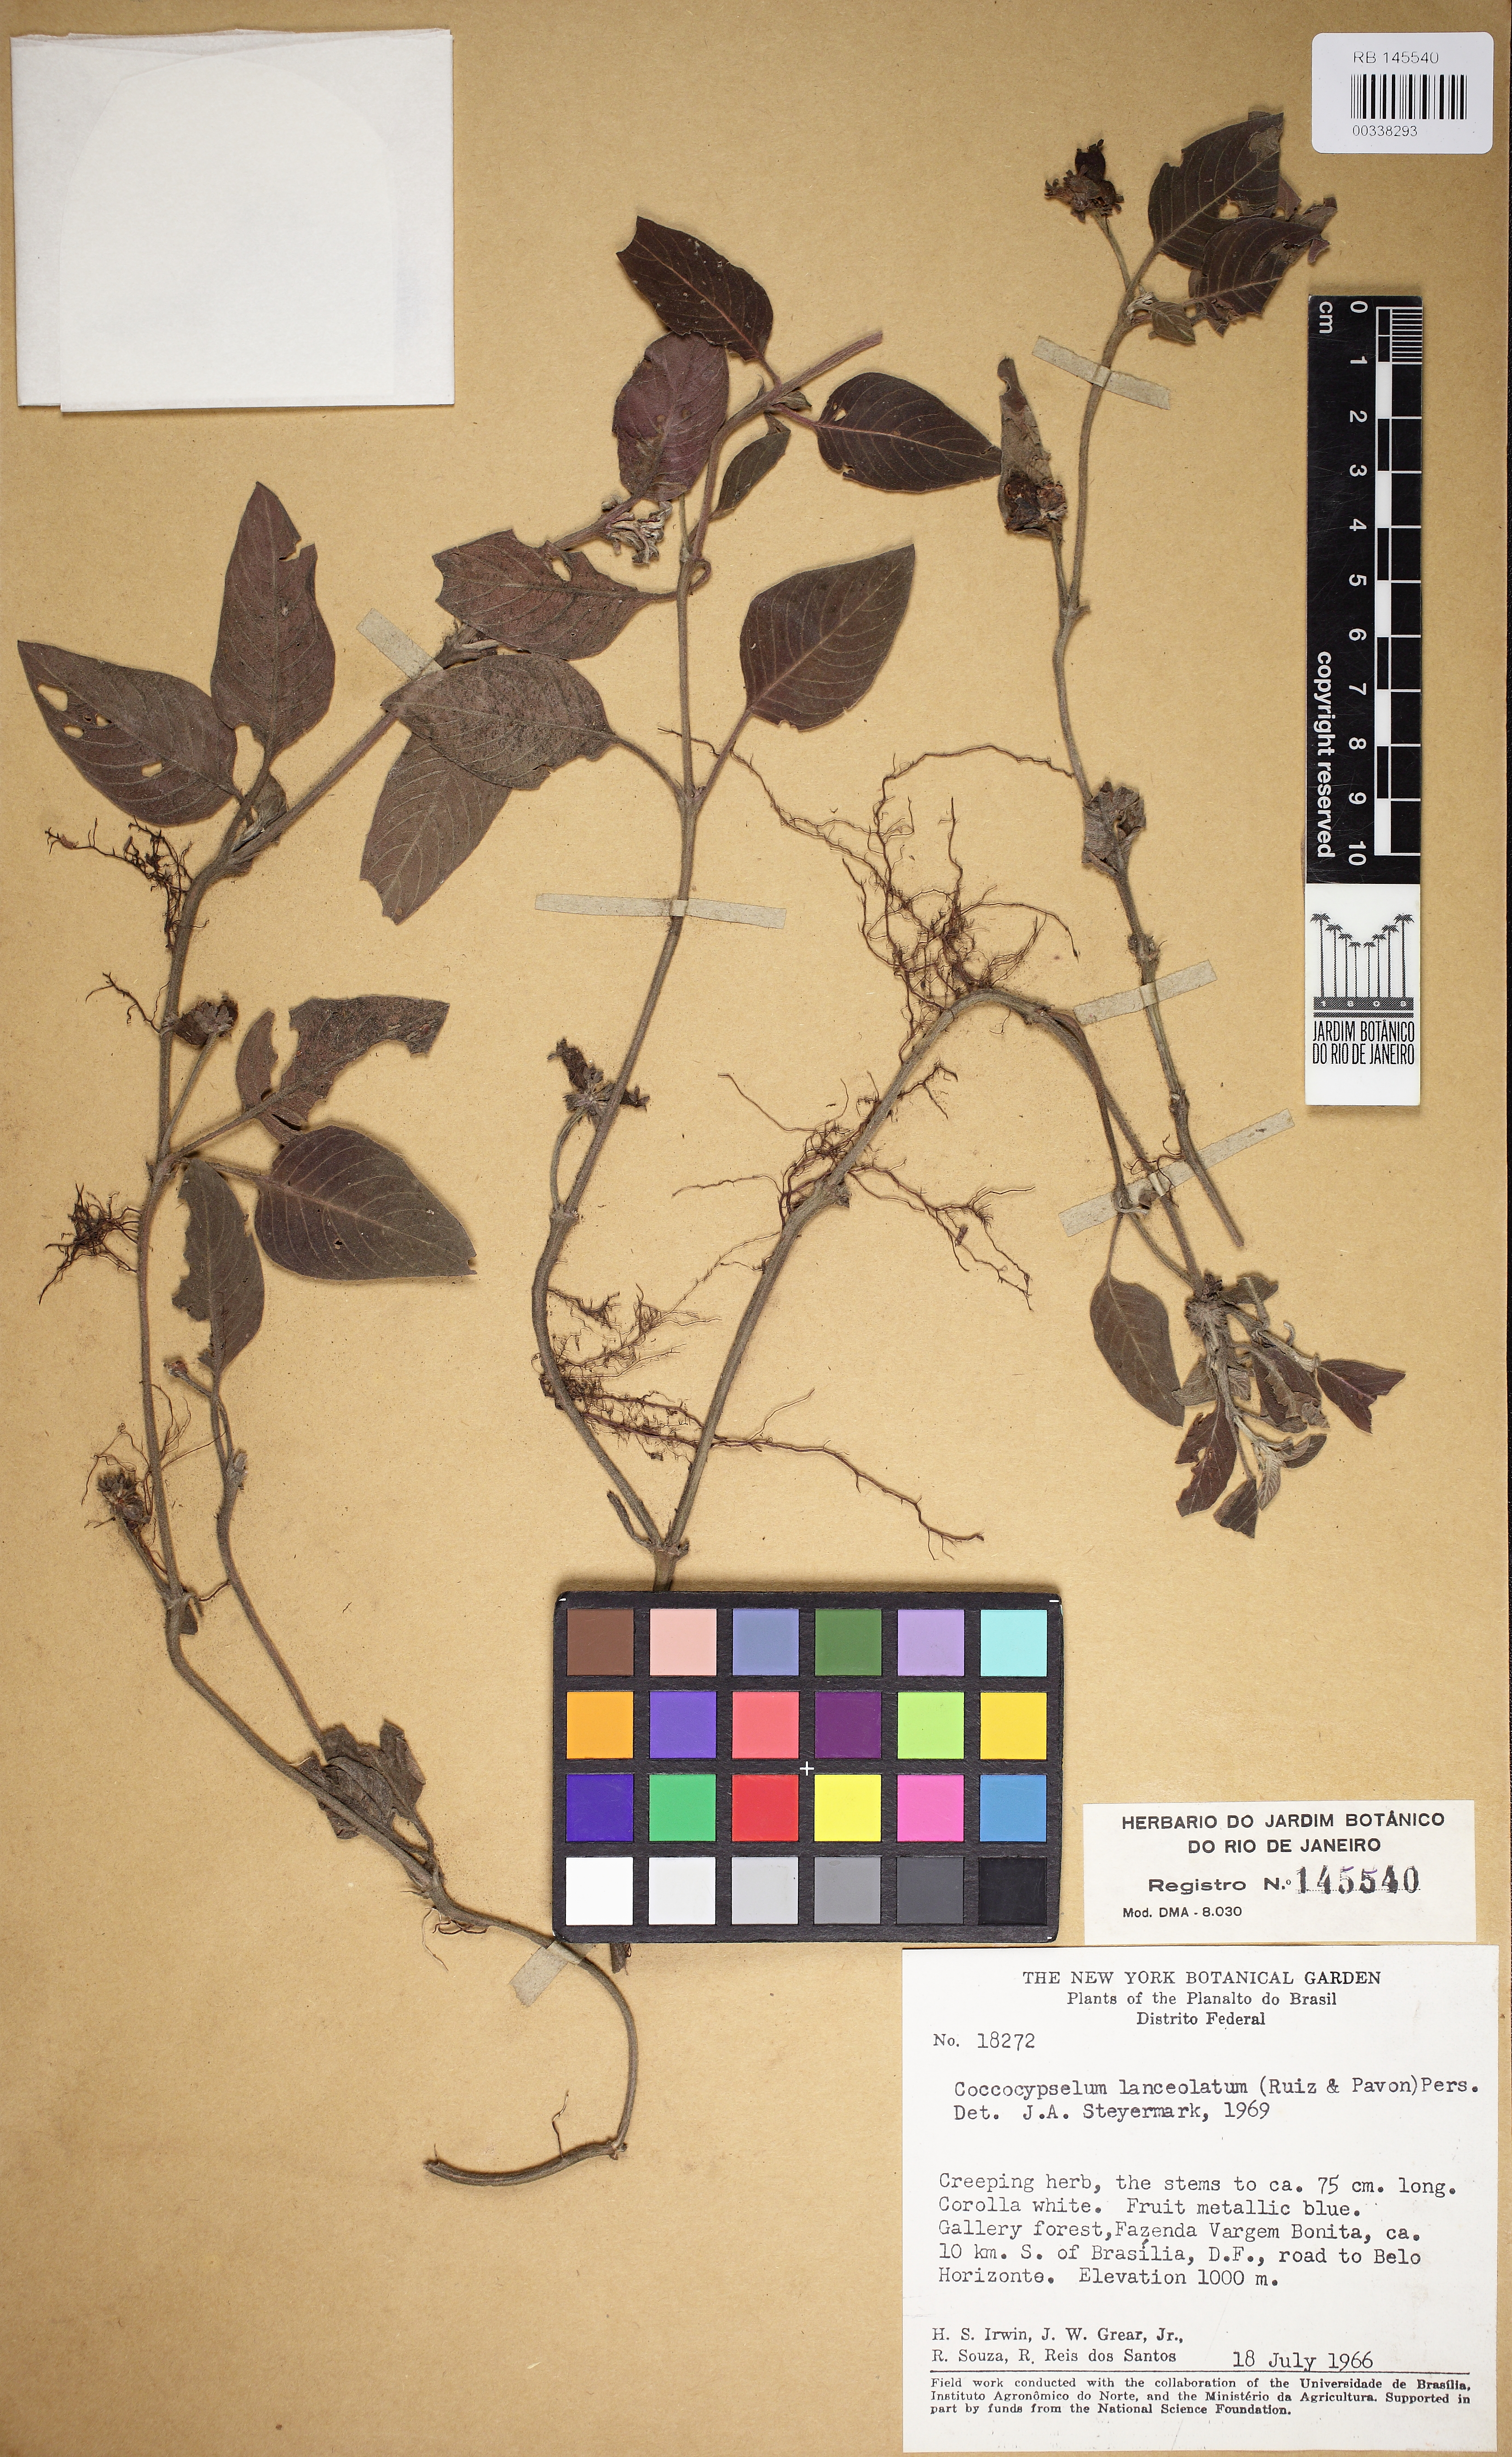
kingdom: Plantae
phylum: Tracheophyta
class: Magnoliopsida
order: Gentianales
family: Rubiaceae
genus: Coccocypselum
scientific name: Coccocypselum lanceolatum
